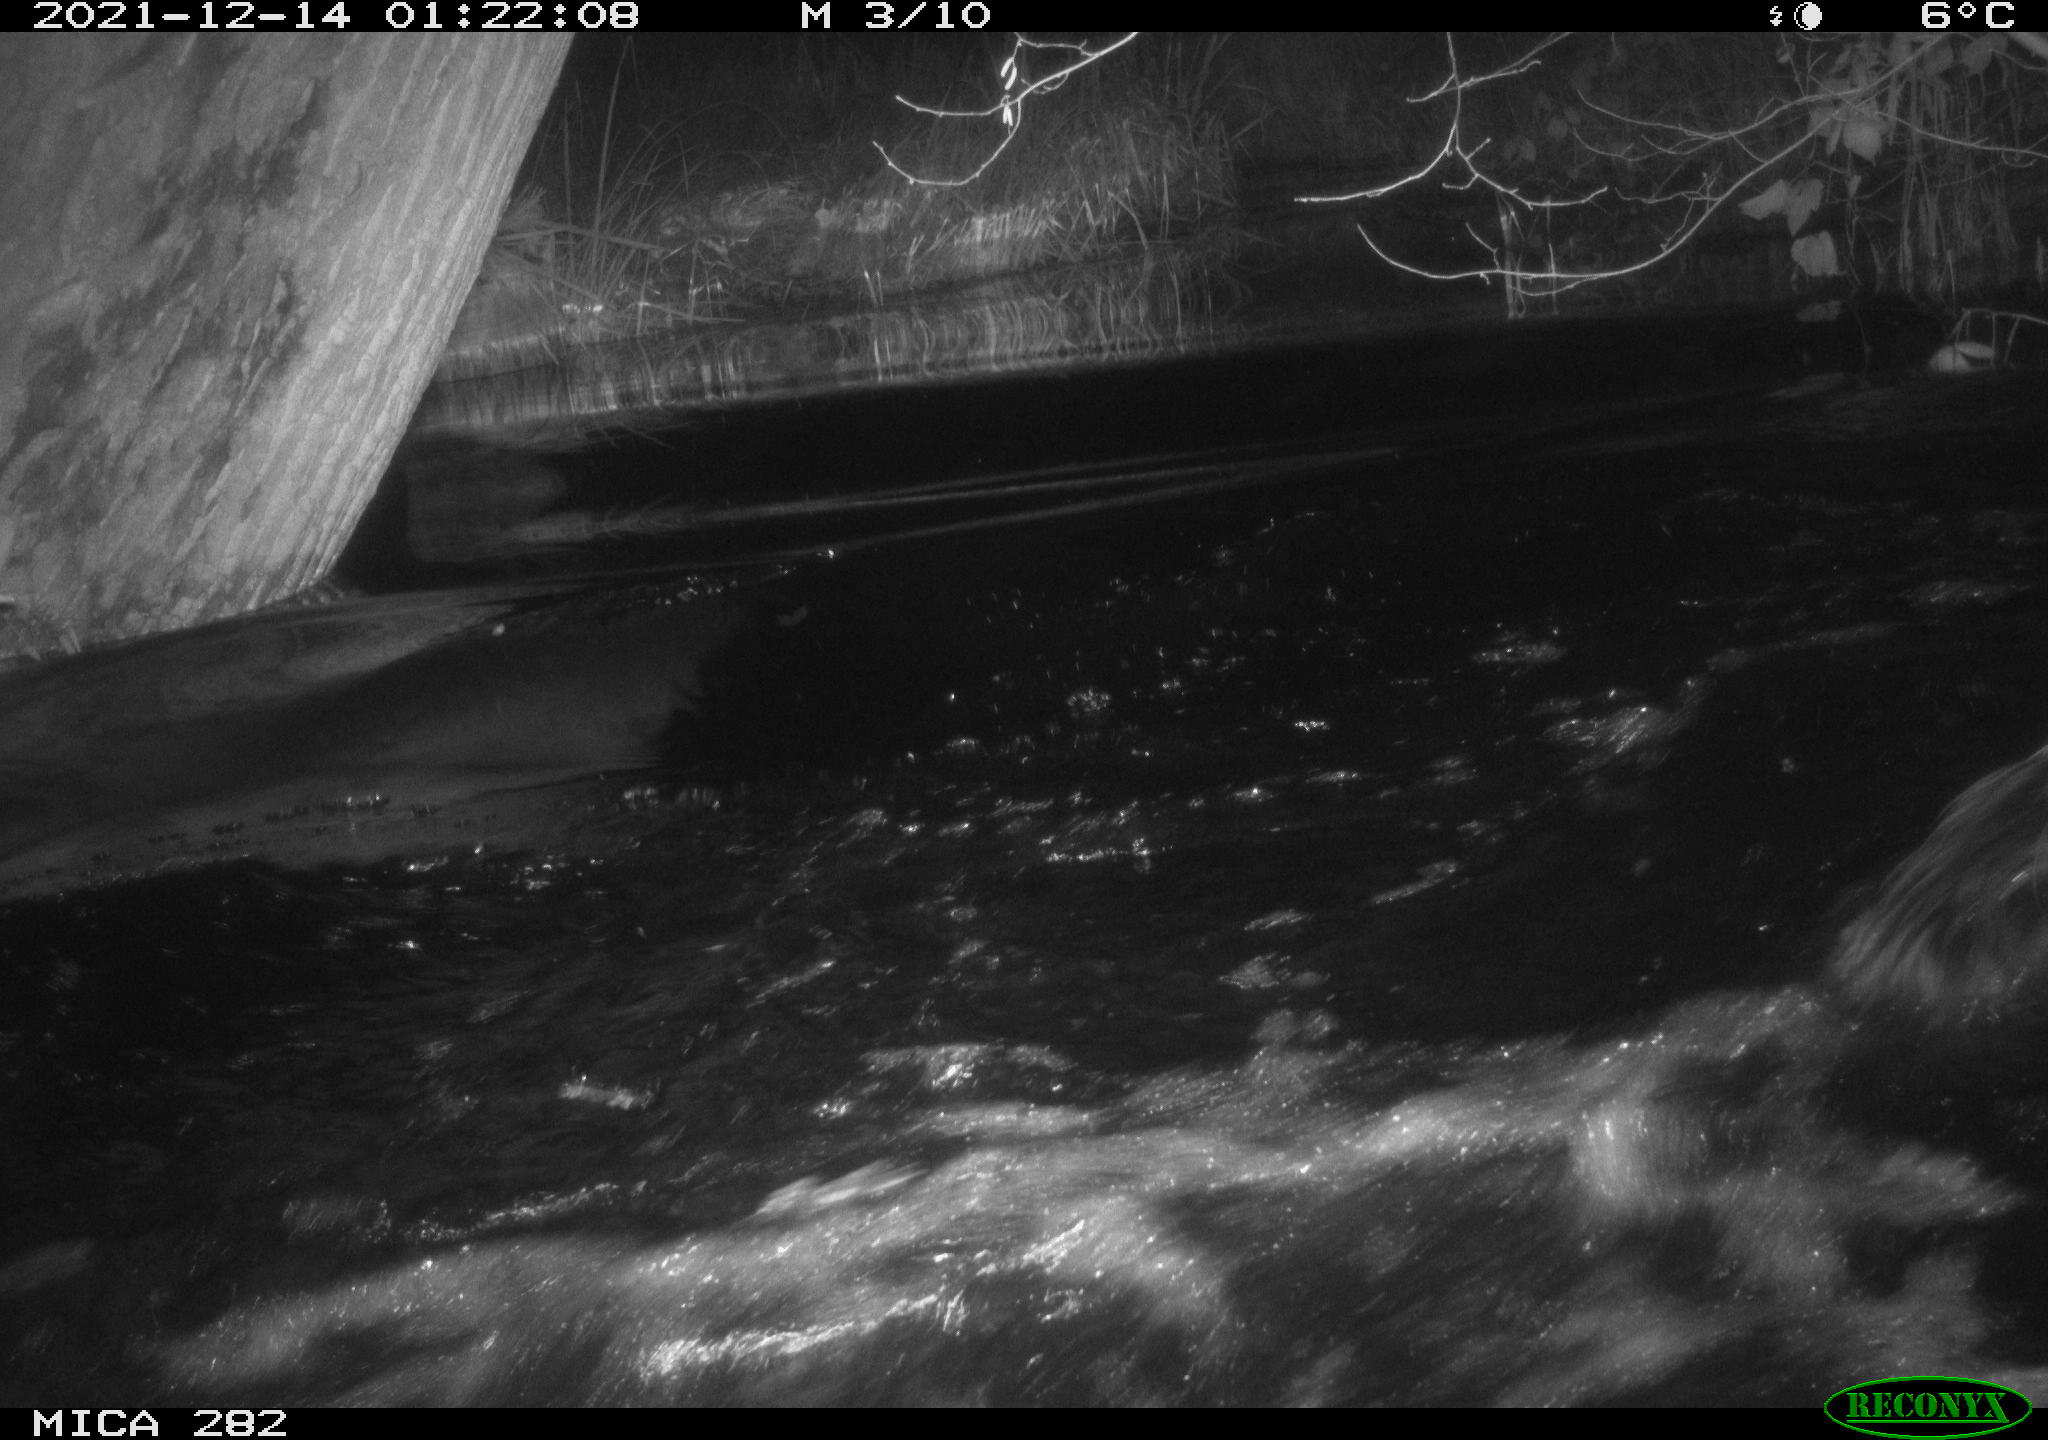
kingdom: Animalia
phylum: Chordata
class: Mammalia
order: Artiodactyla
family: Suidae
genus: Sus
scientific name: Sus scrofa
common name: Wild boar
